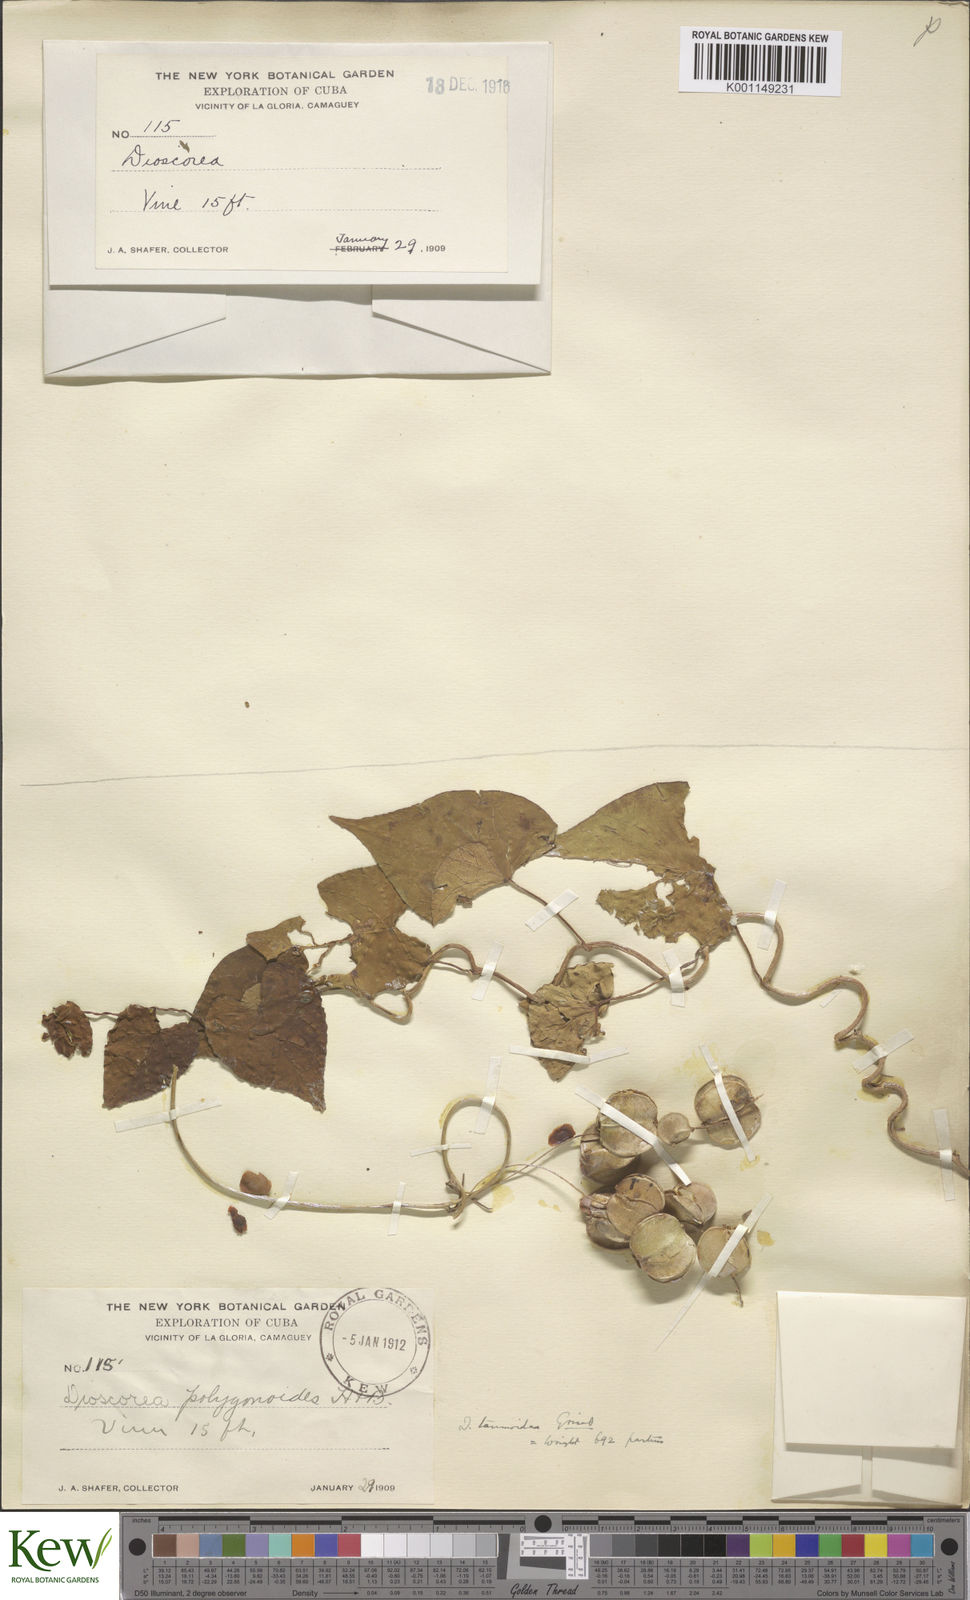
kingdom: Plantae
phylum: Tracheophyta
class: Liliopsida
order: Dioscoreales
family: Dioscoreaceae
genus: Dioscorea
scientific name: Dioscorea tamoidea
